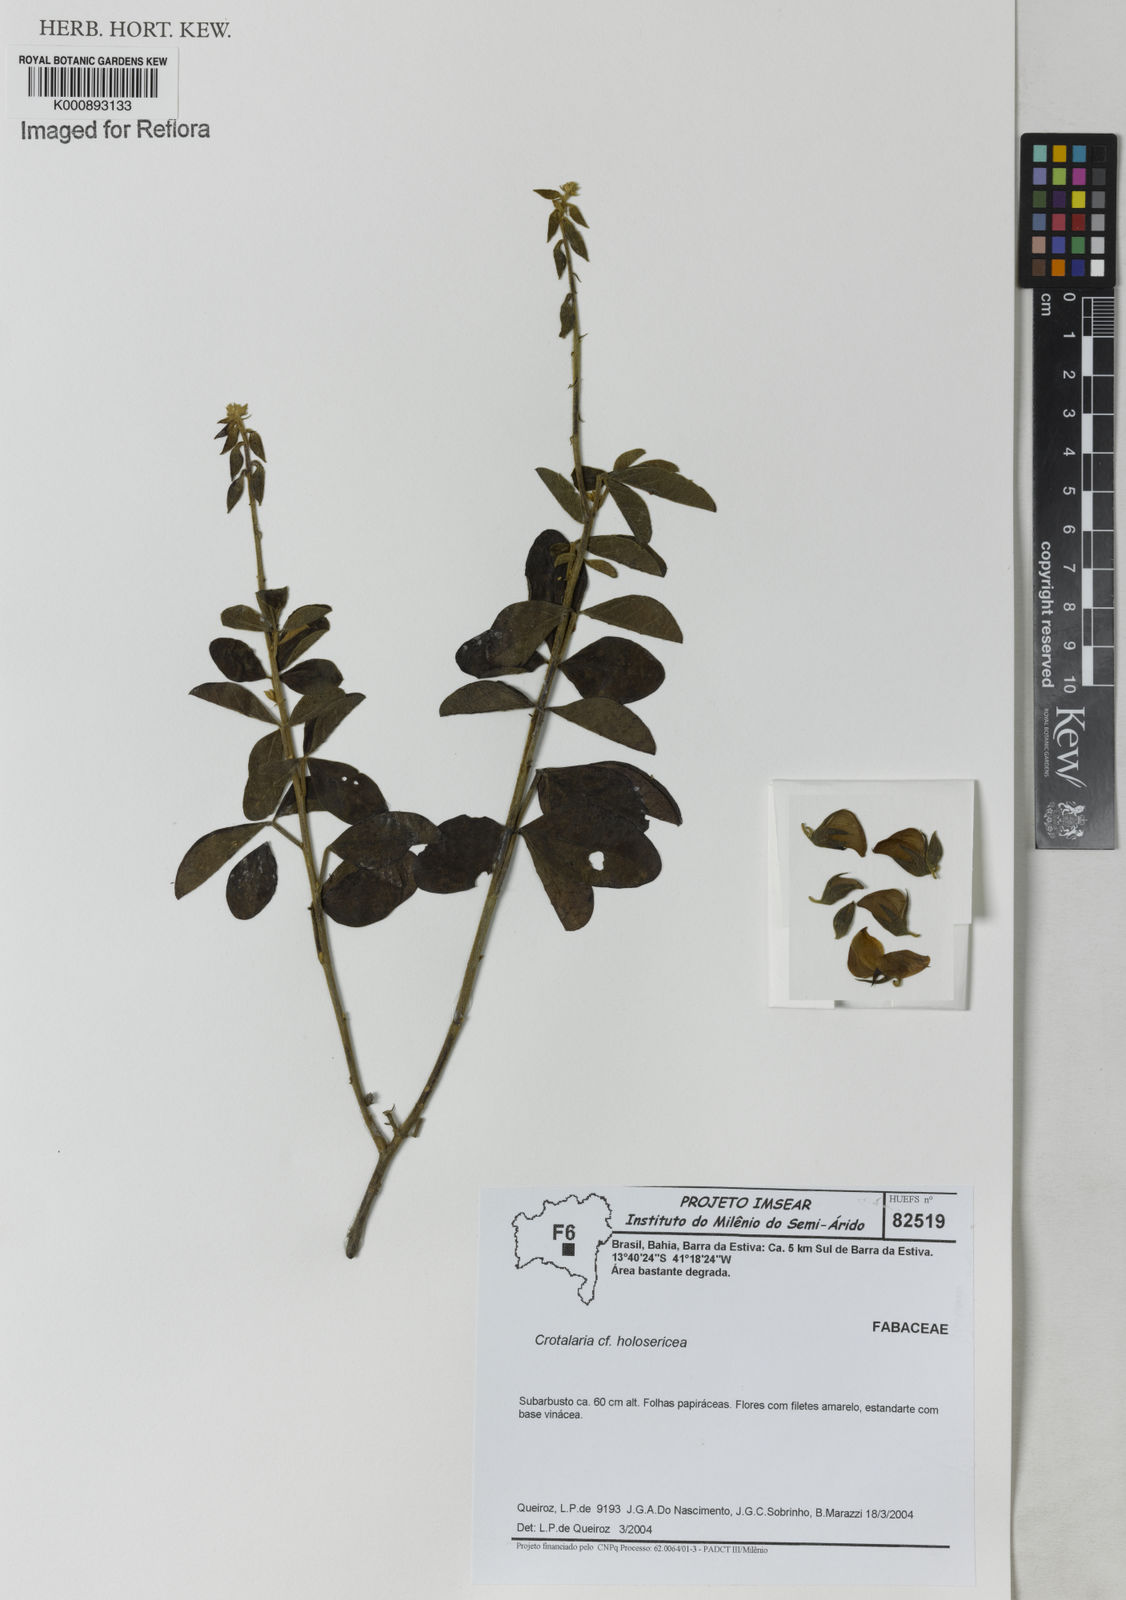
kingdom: Plantae
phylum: Tracheophyta
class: Magnoliopsida
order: Fabales
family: Fabaceae
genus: Crotalaria
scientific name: Crotalaria holosericea
